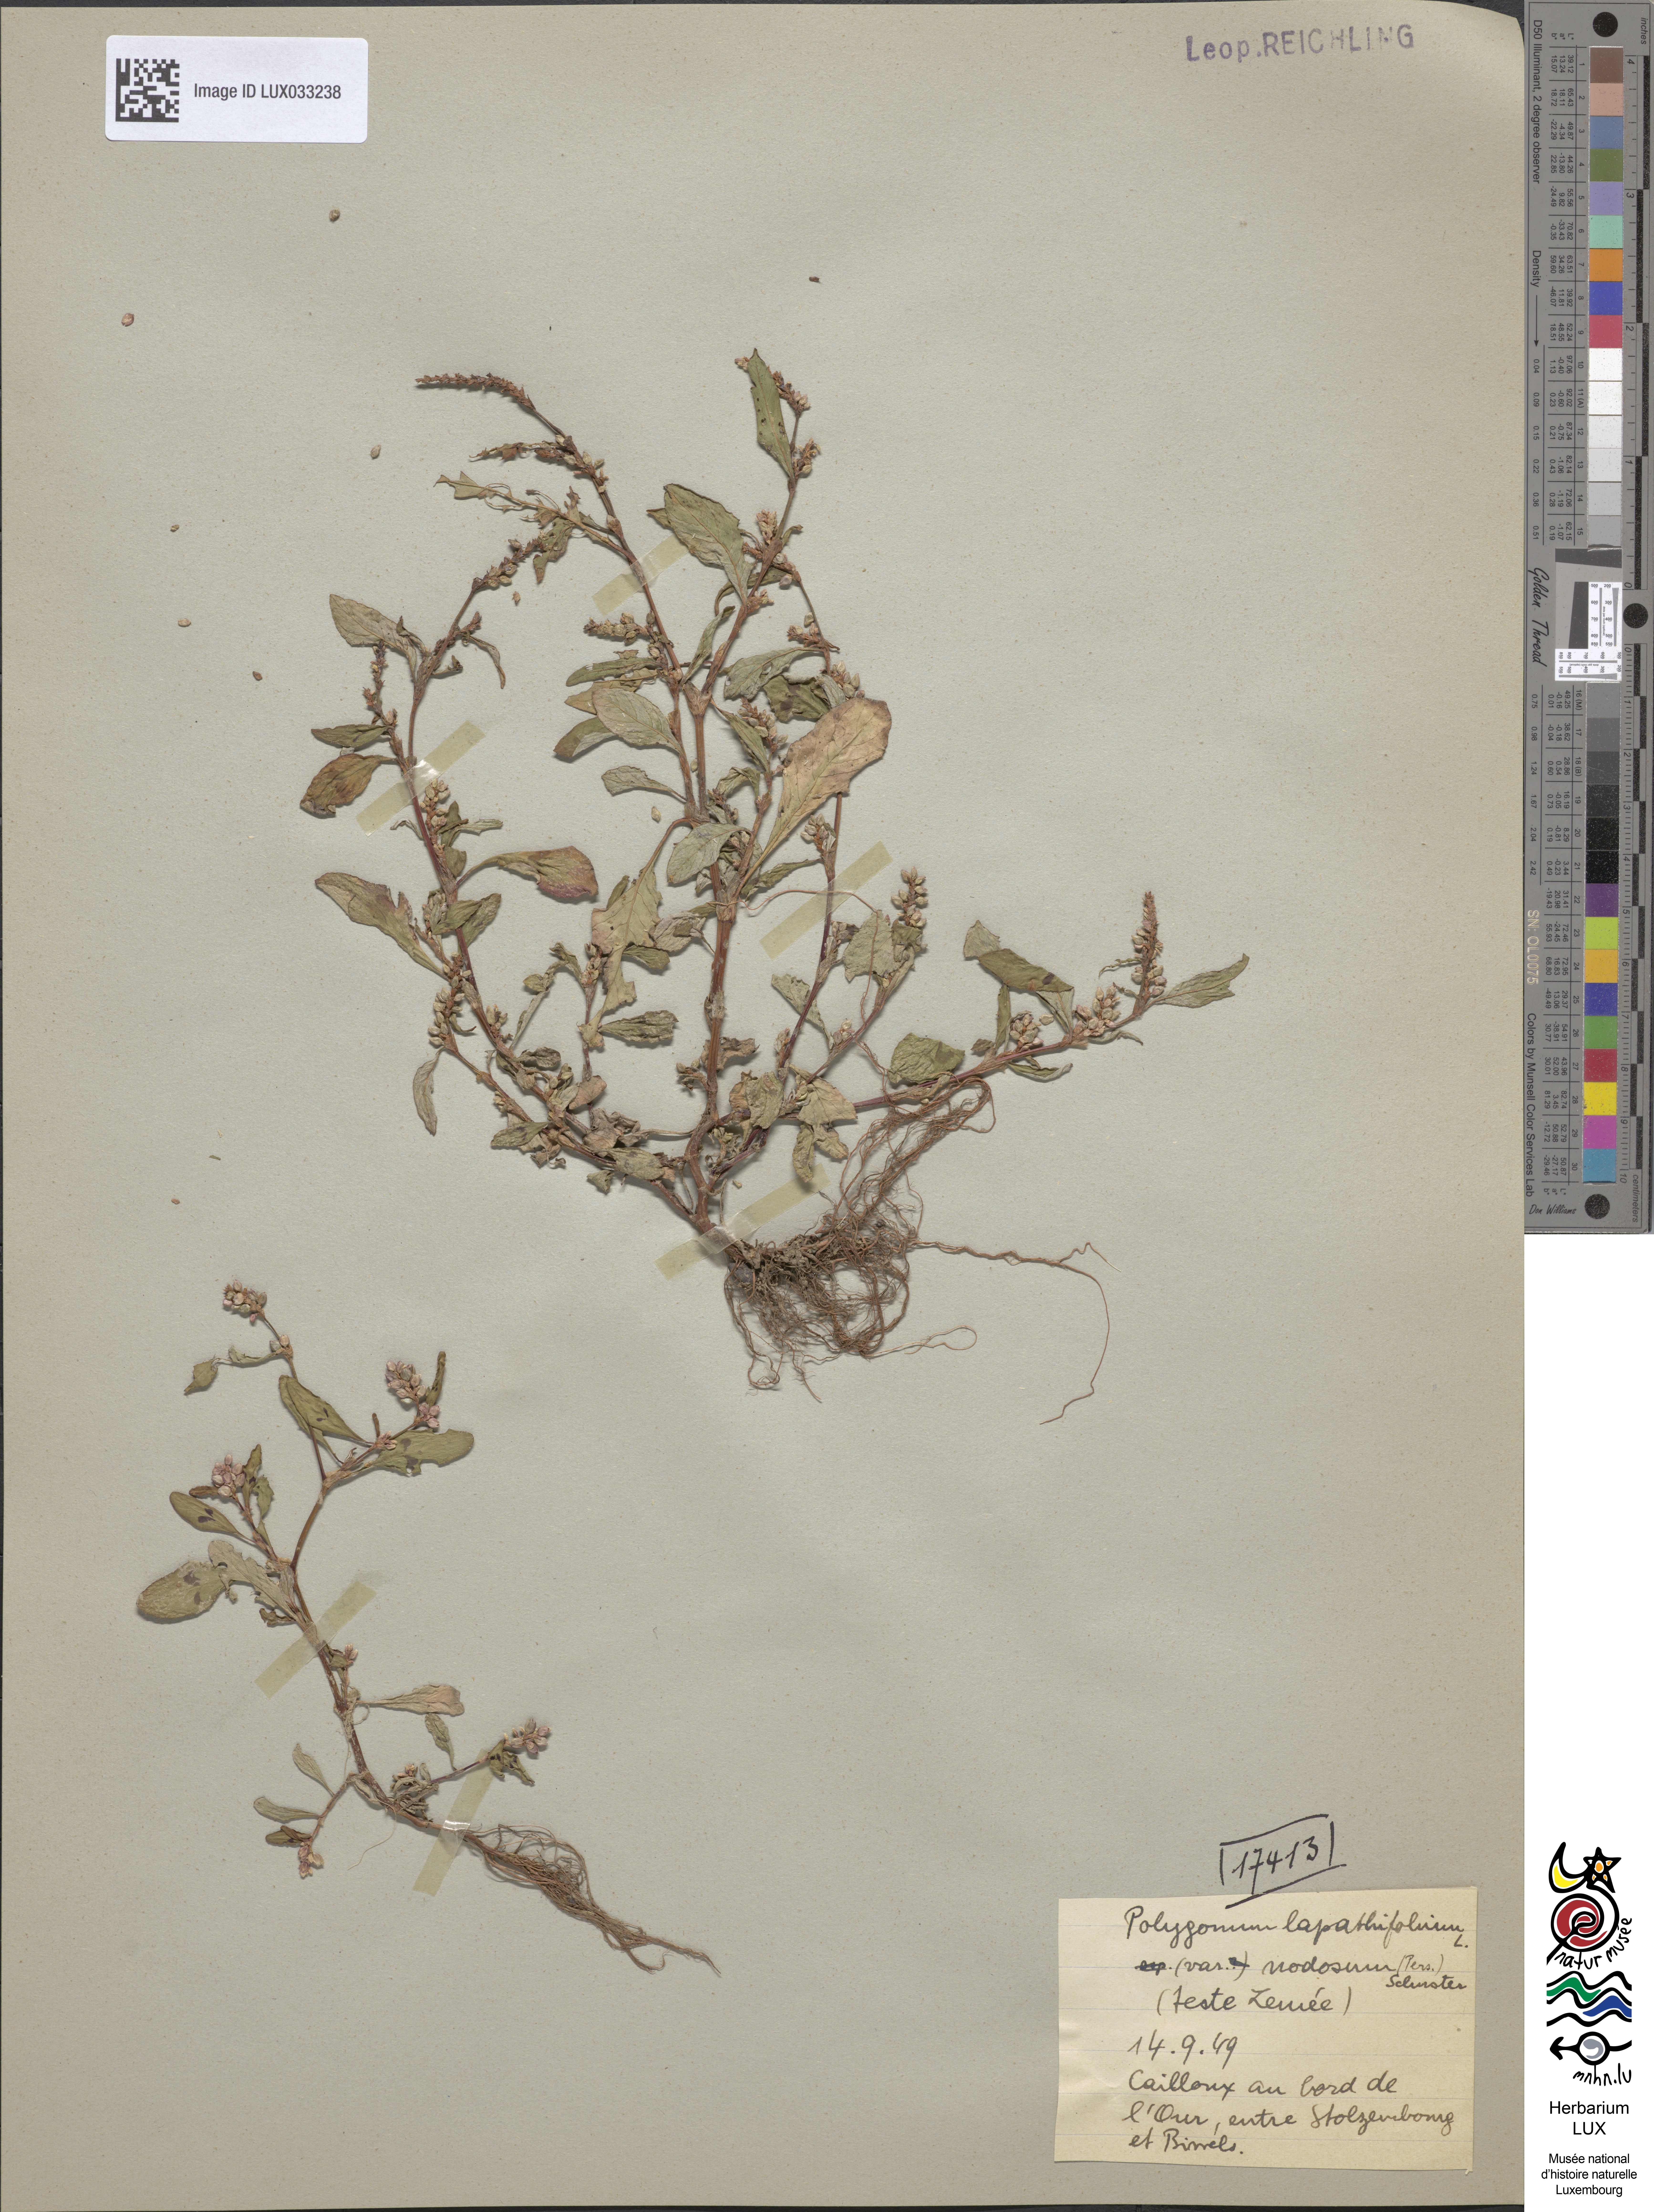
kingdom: Plantae
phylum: Tracheophyta
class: Magnoliopsida
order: Caryophyllales
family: Polygonaceae
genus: Persicaria
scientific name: Persicaria lapathifolia
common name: Curlytop knotweed
